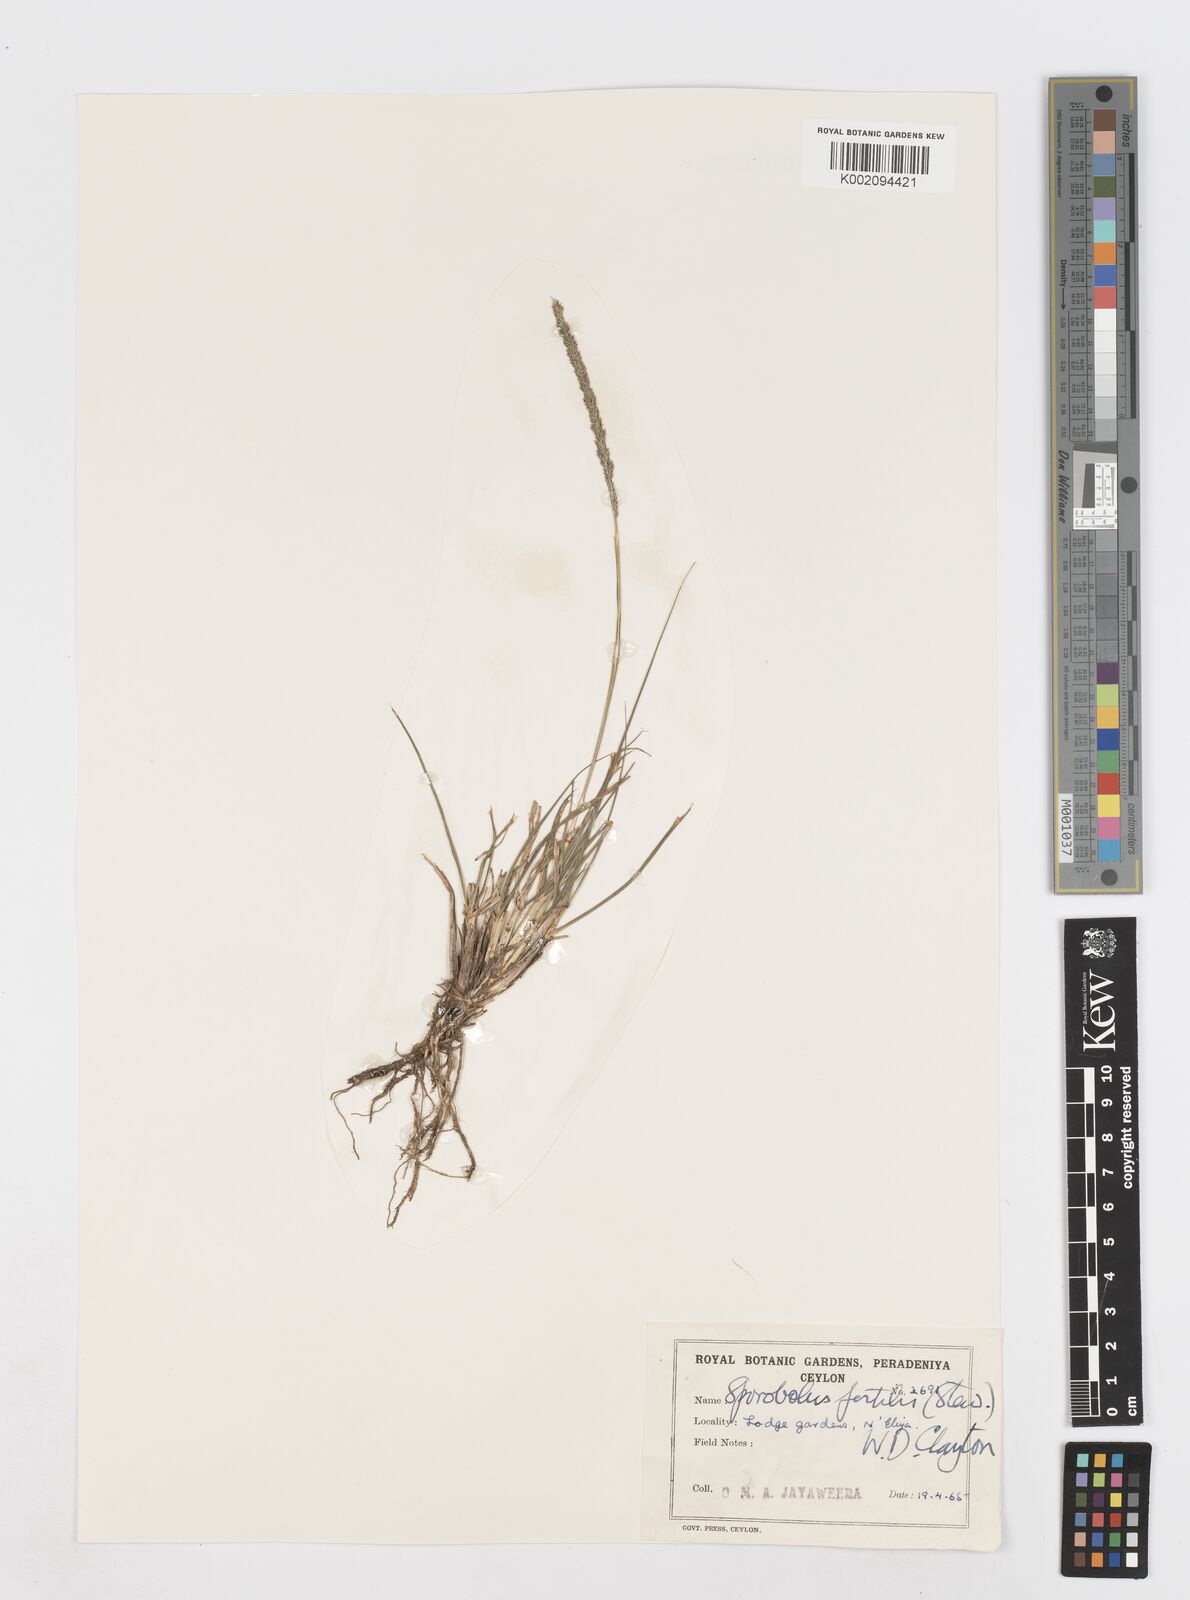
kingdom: Plantae
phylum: Tracheophyta
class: Liliopsida
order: Poales
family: Poaceae
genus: Sporobolus
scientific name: Sporobolus fertilis
